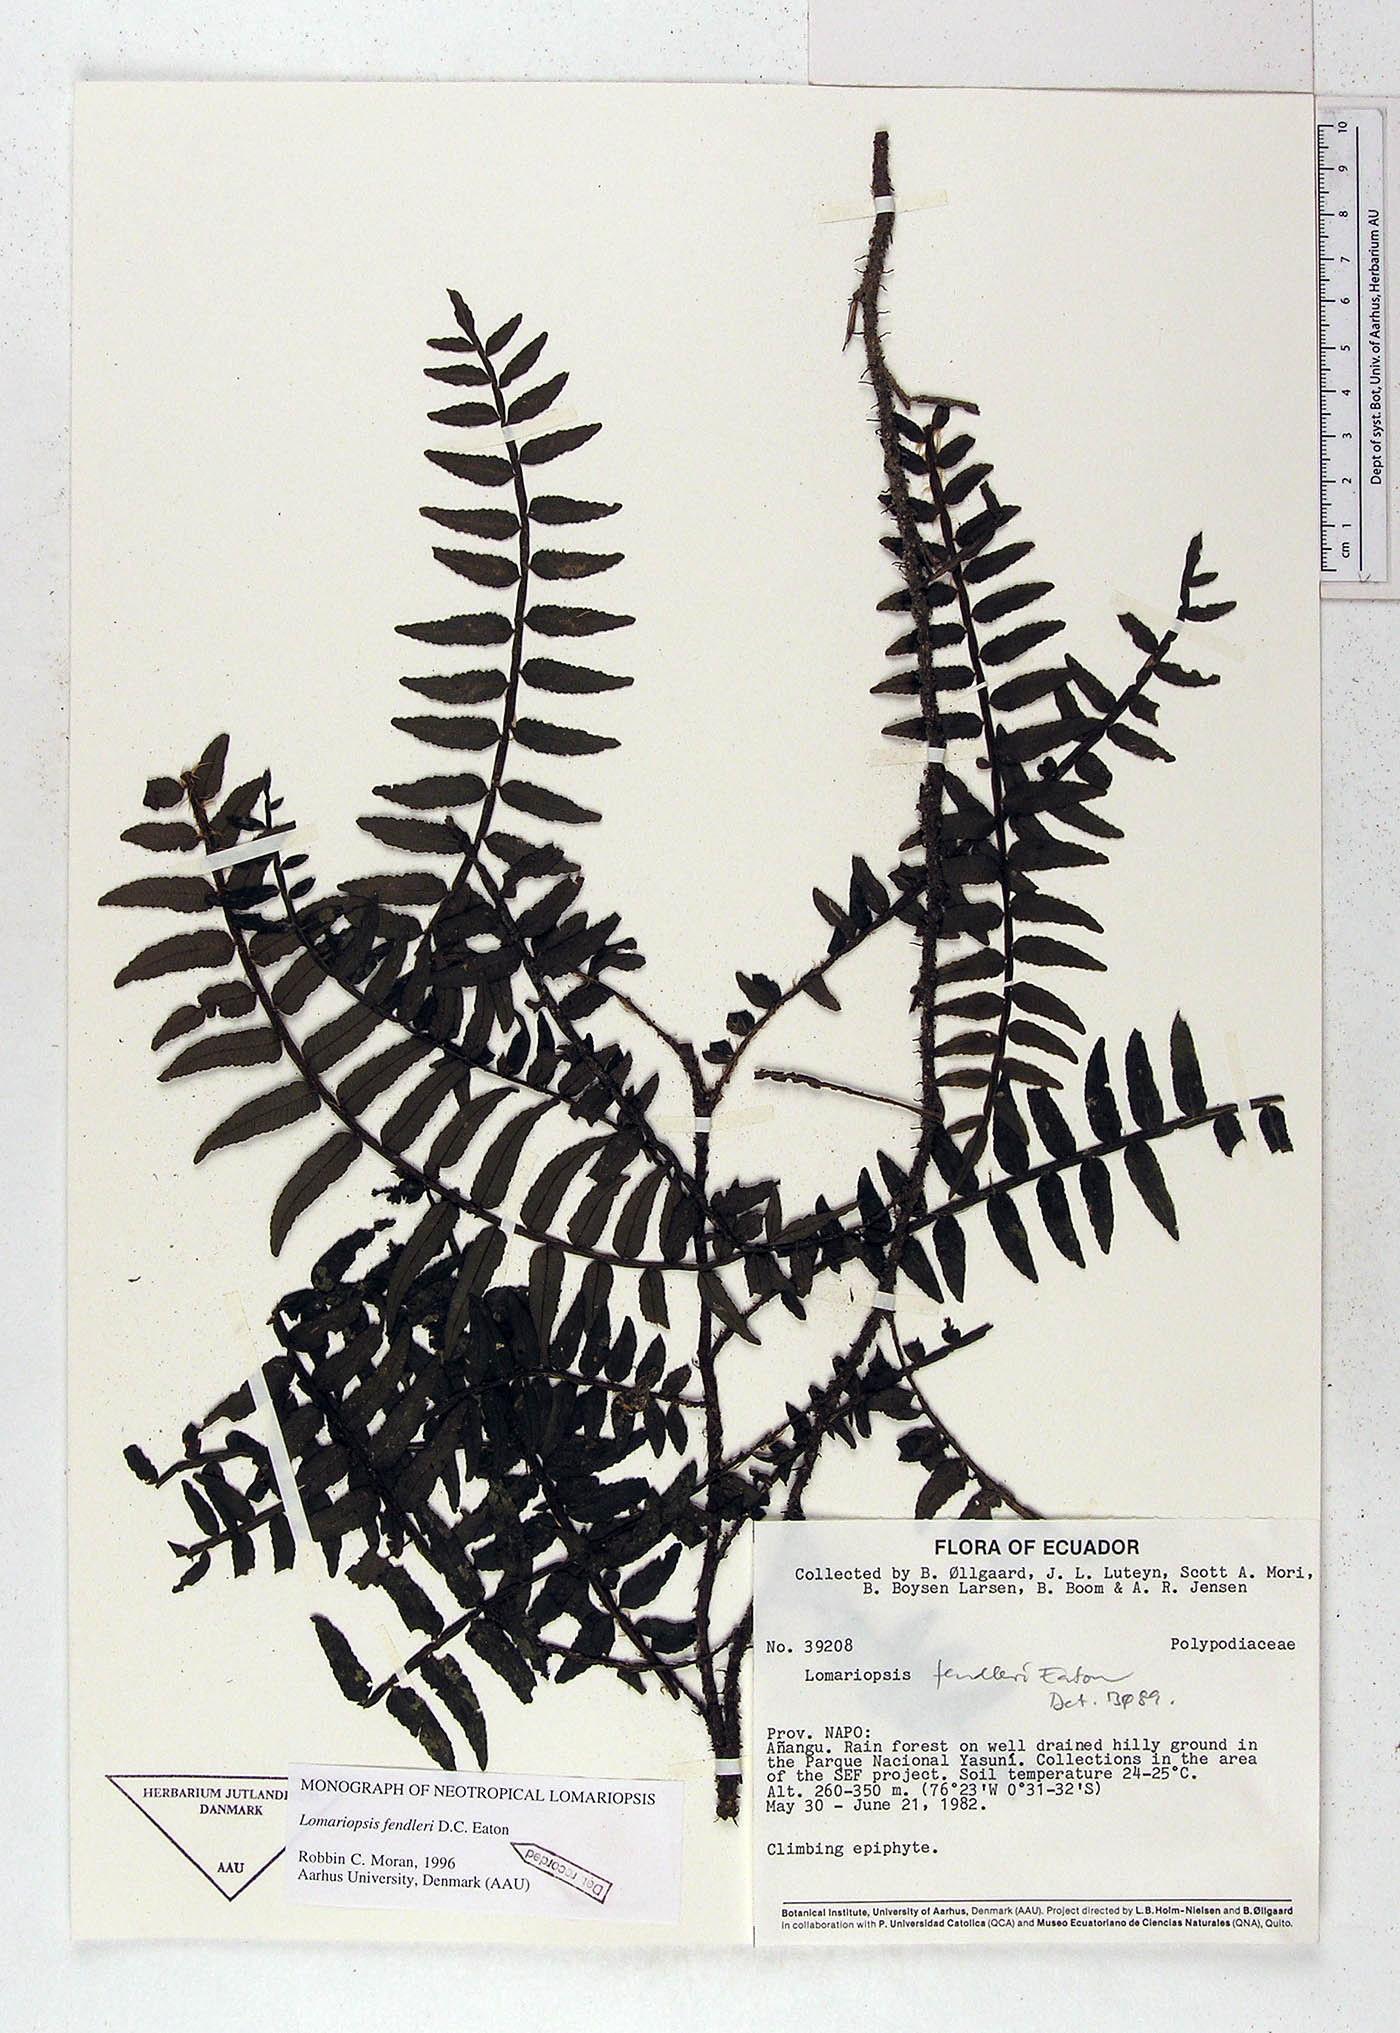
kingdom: Plantae
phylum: Tracheophyta
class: Polypodiopsida
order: Polypodiales
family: Lomariopsidaceae
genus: Lomariopsis
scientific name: Lomariopsis fendleri
